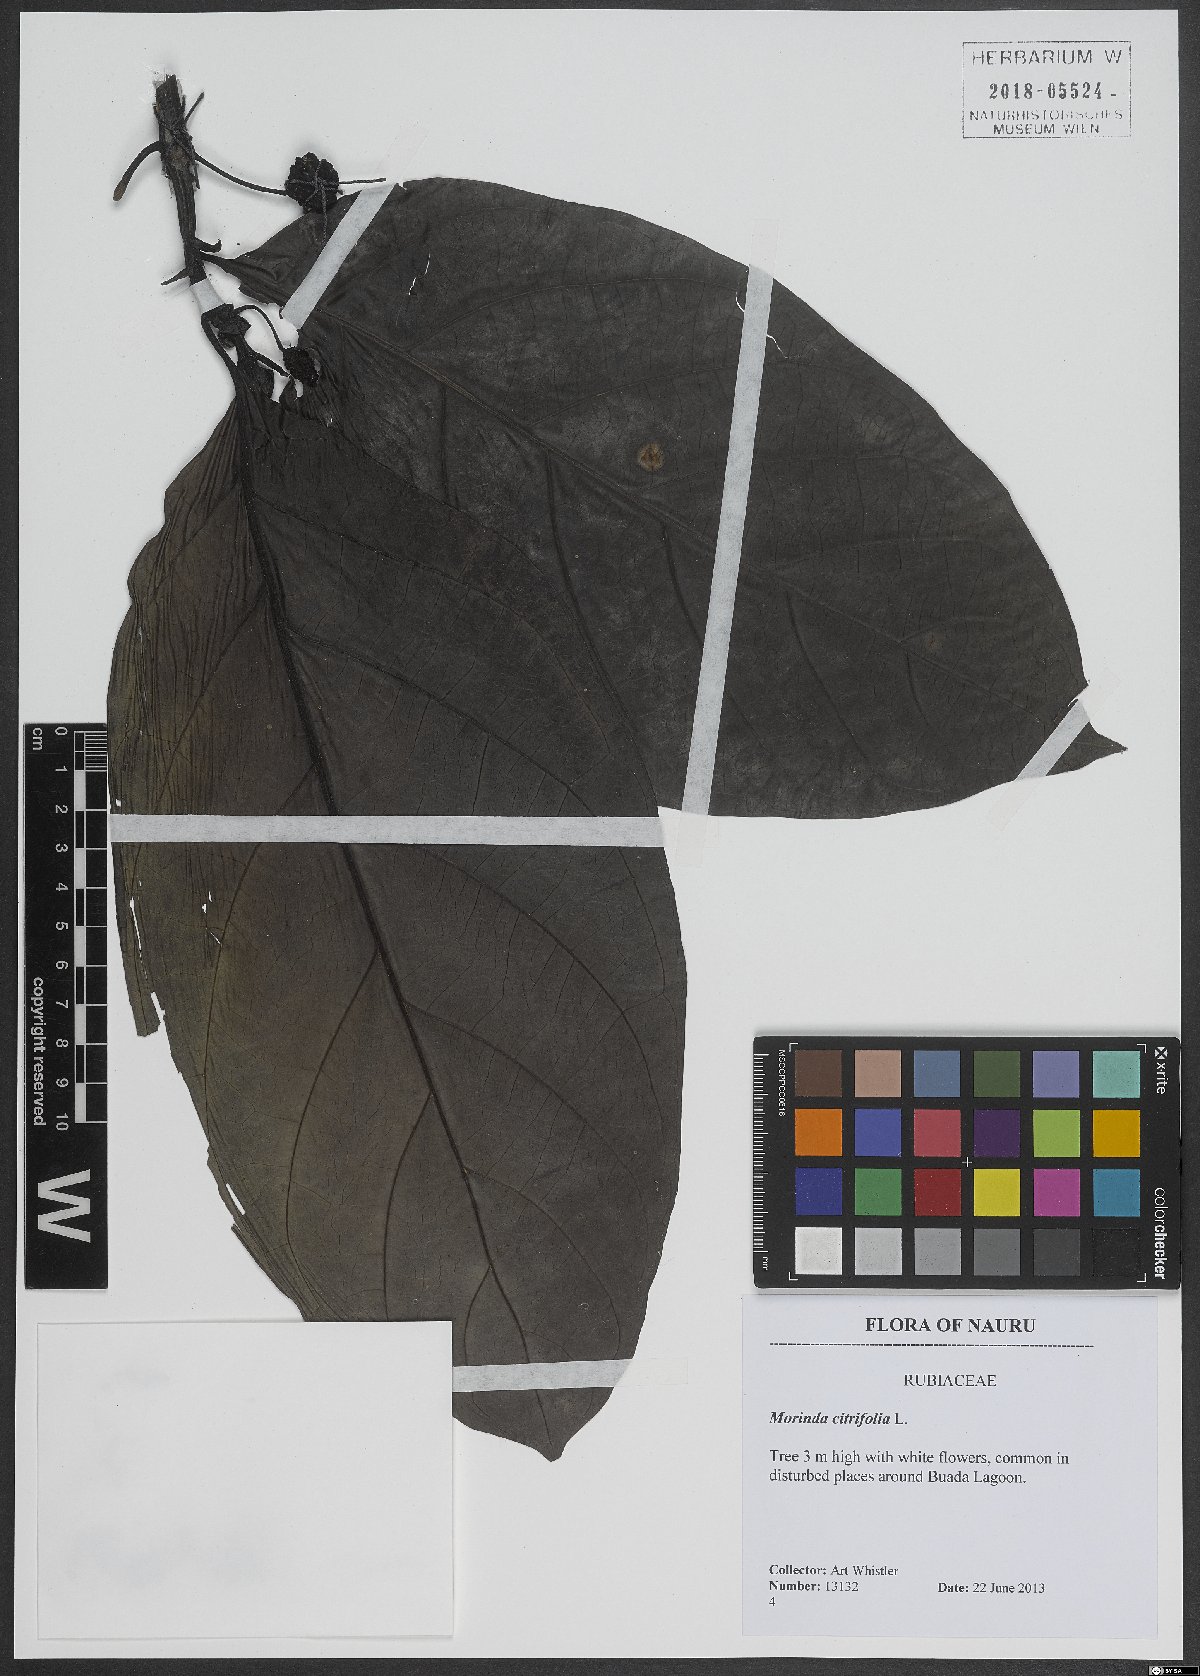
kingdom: Plantae
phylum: Tracheophyta
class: Magnoliopsida
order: Gentianales
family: Rubiaceae
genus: Morinda
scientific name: Morinda citrifolia
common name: Indian-mulberry
